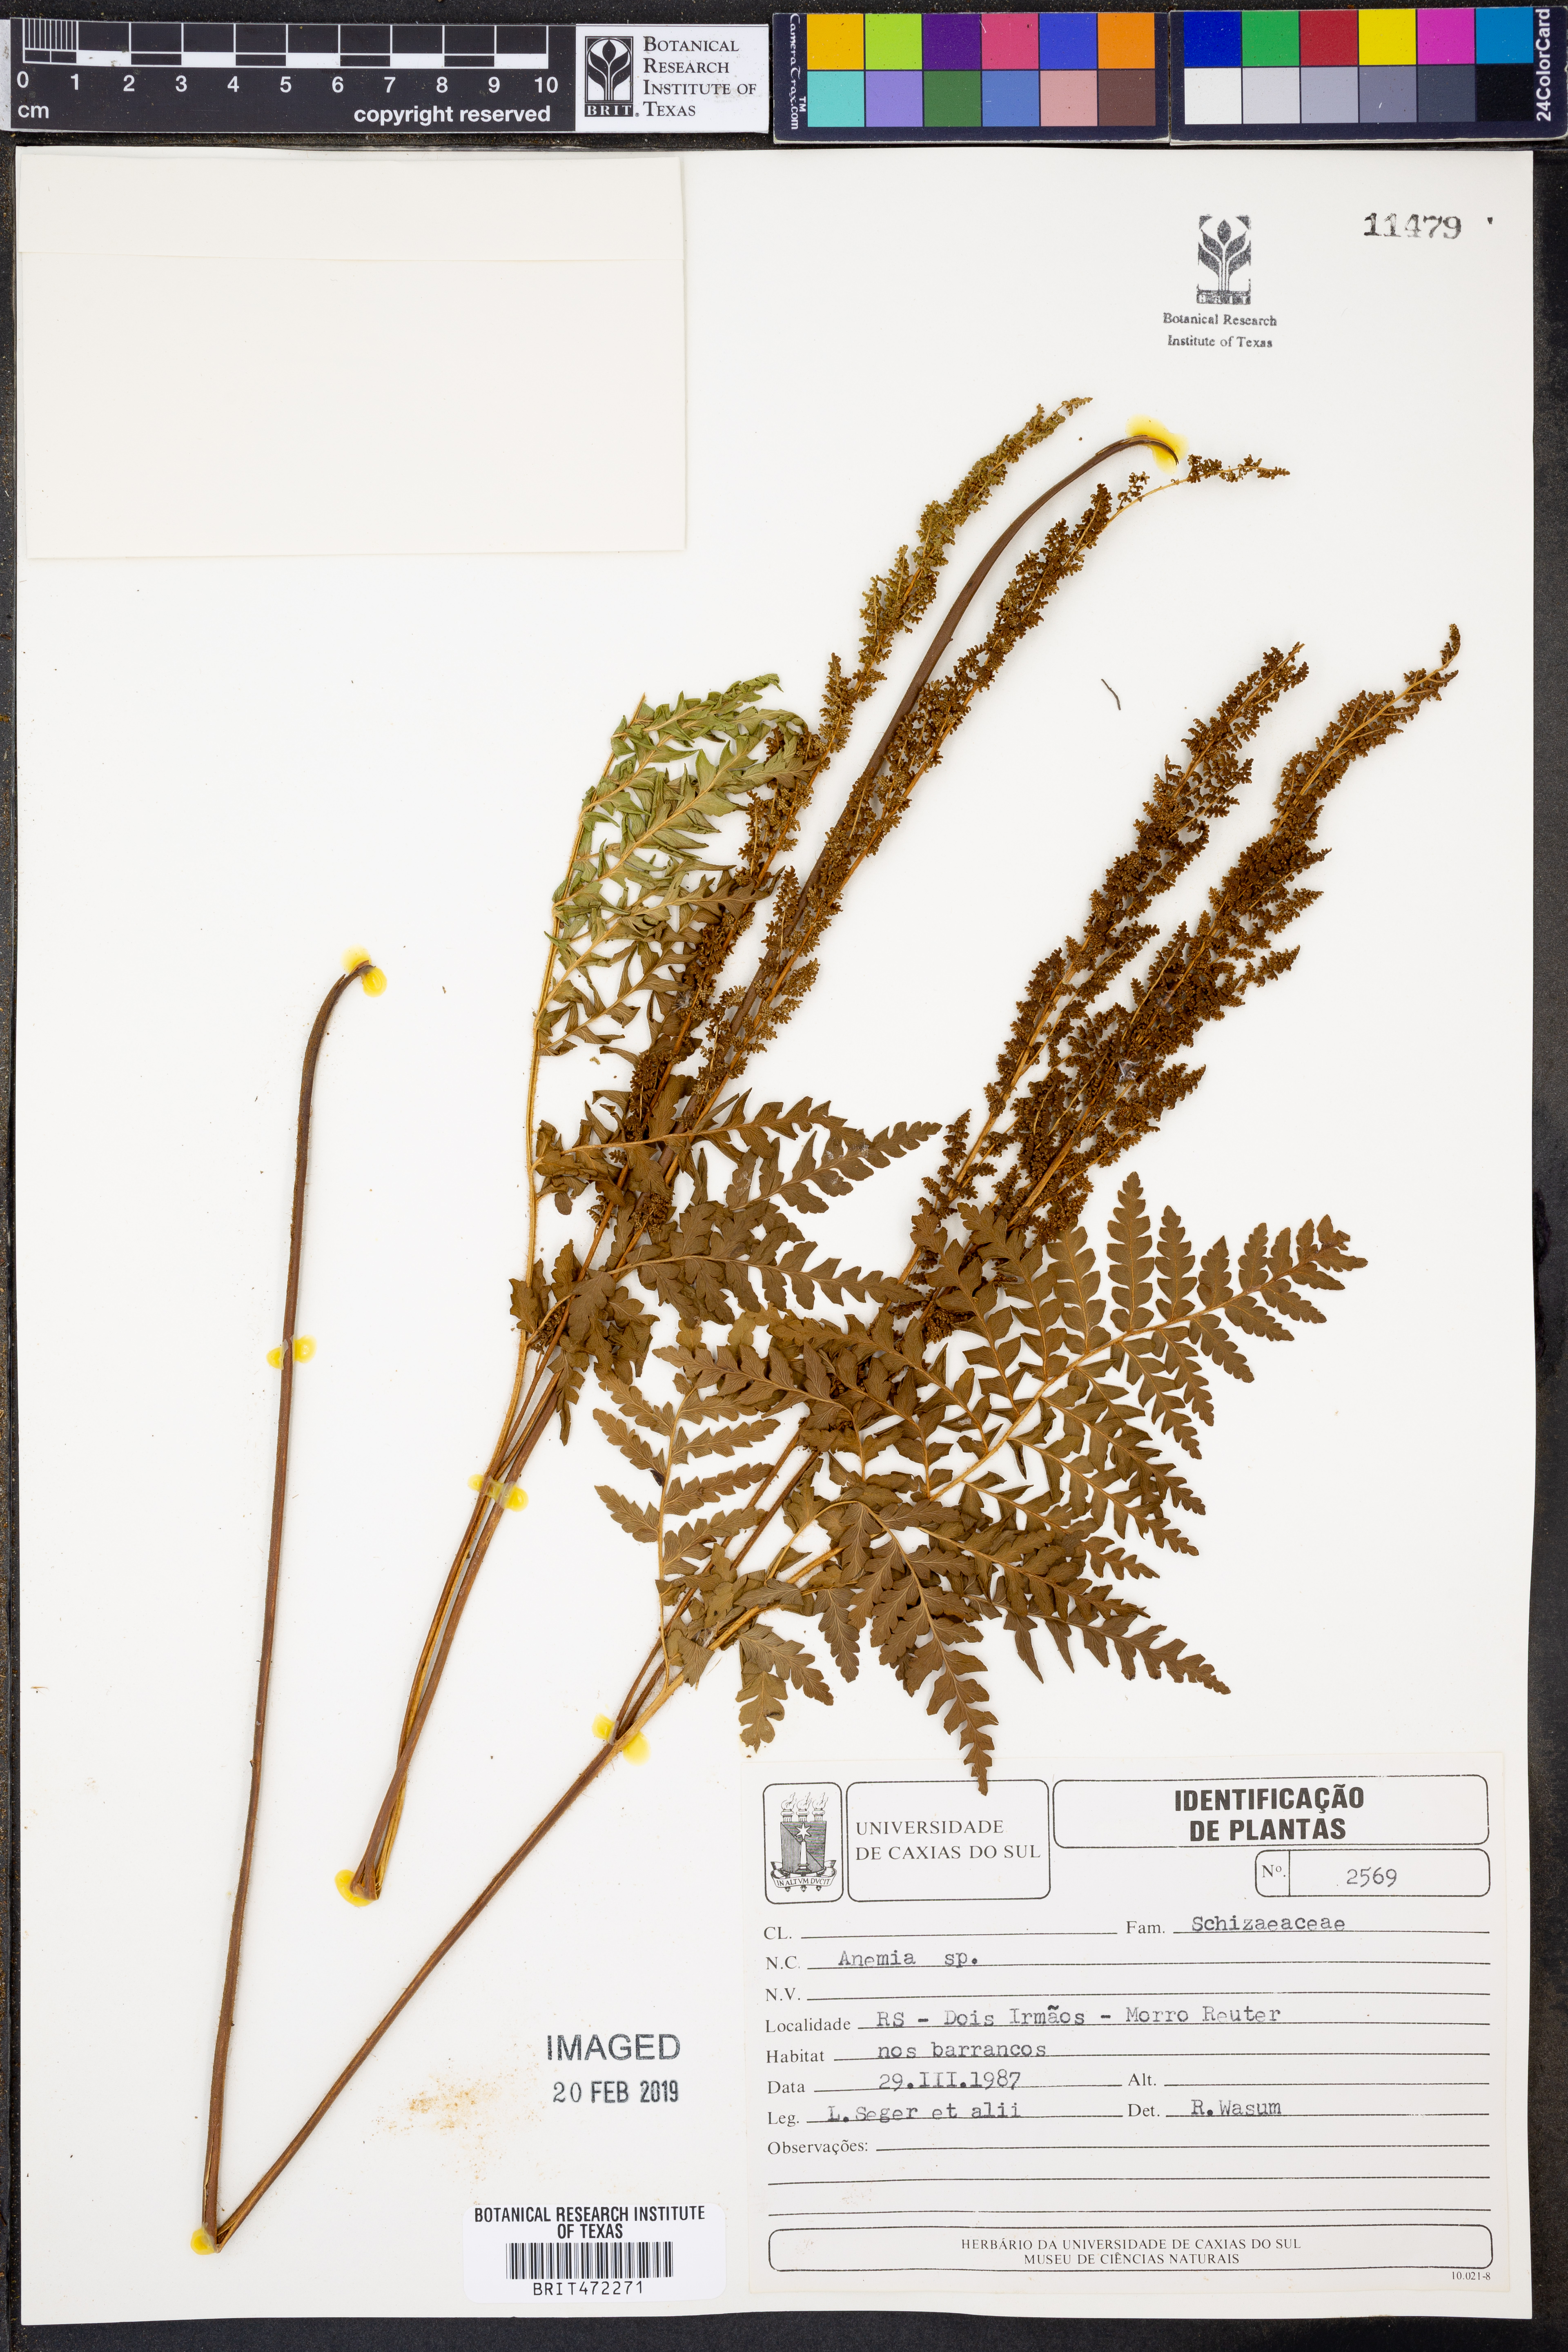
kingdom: Plantae
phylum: Tracheophyta
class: Polypodiopsida
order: Schizaeales
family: Anemiaceae
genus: Anemia
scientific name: Anemia
